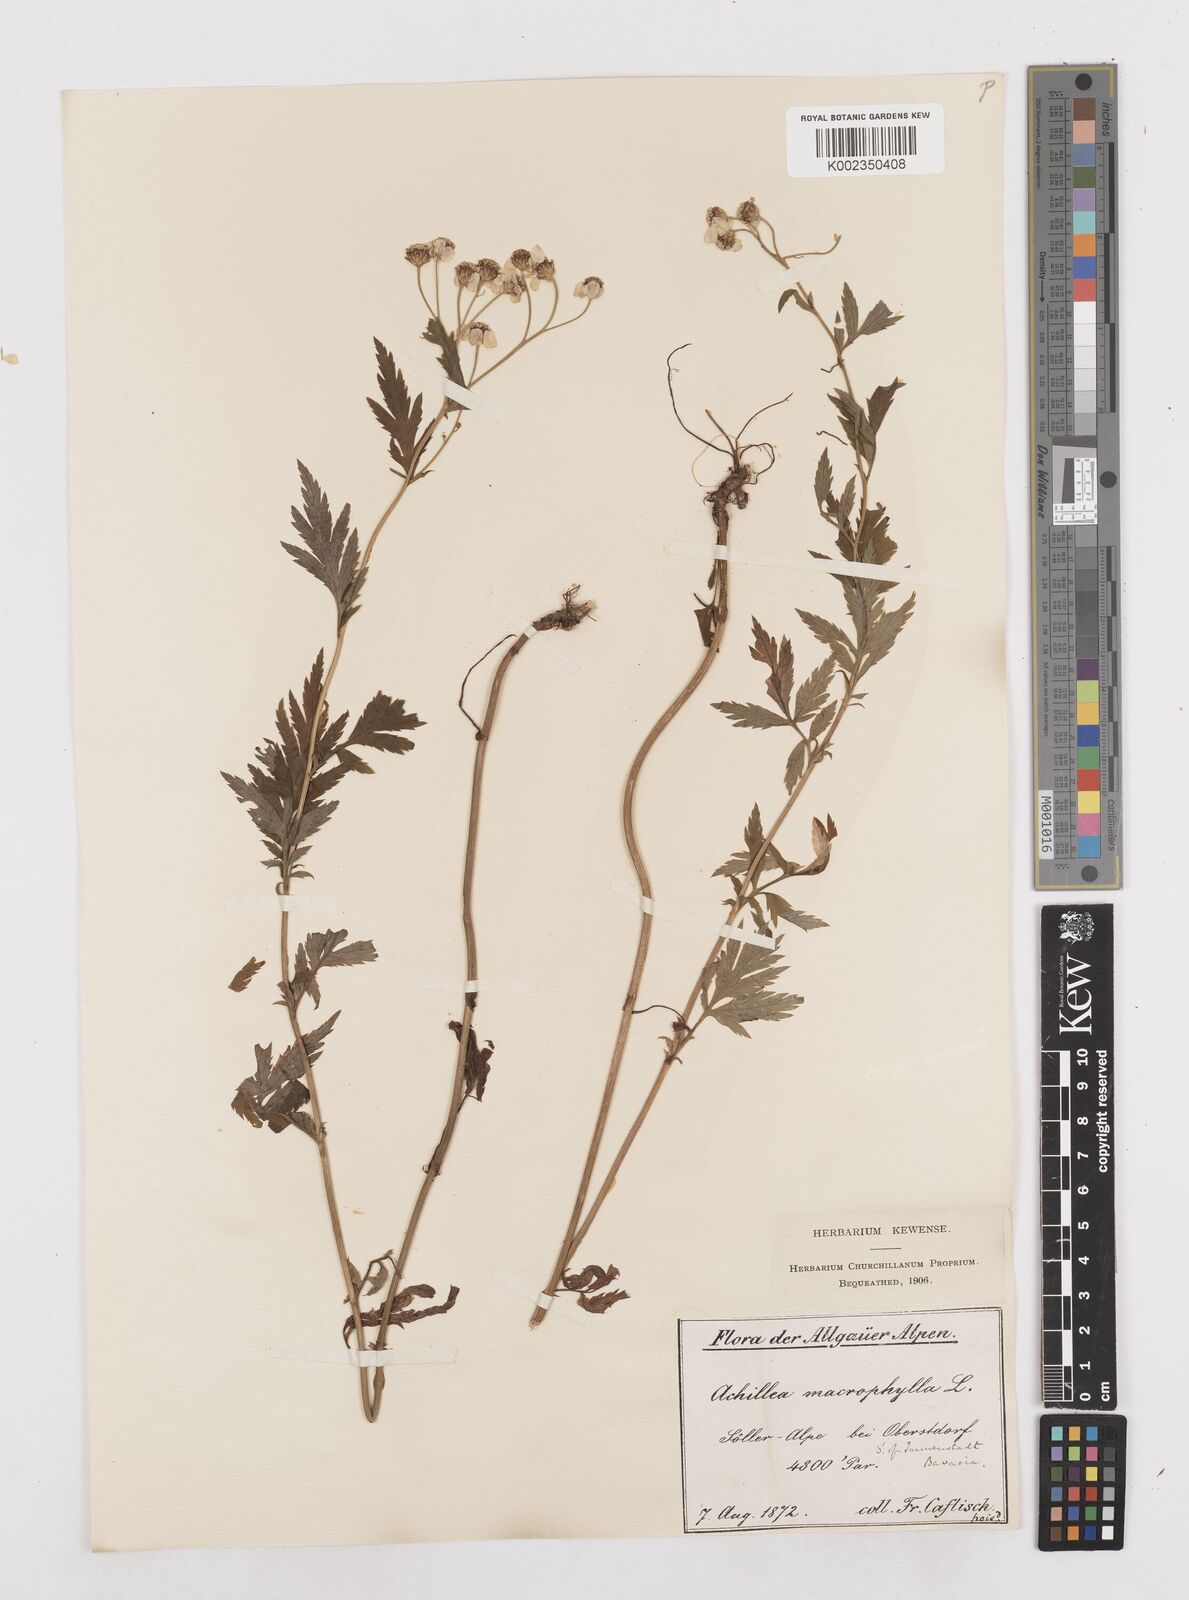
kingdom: Plantae
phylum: Tracheophyta
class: Magnoliopsida
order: Asterales
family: Asteraceae
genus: Achillea
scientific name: Achillea macrophylla
